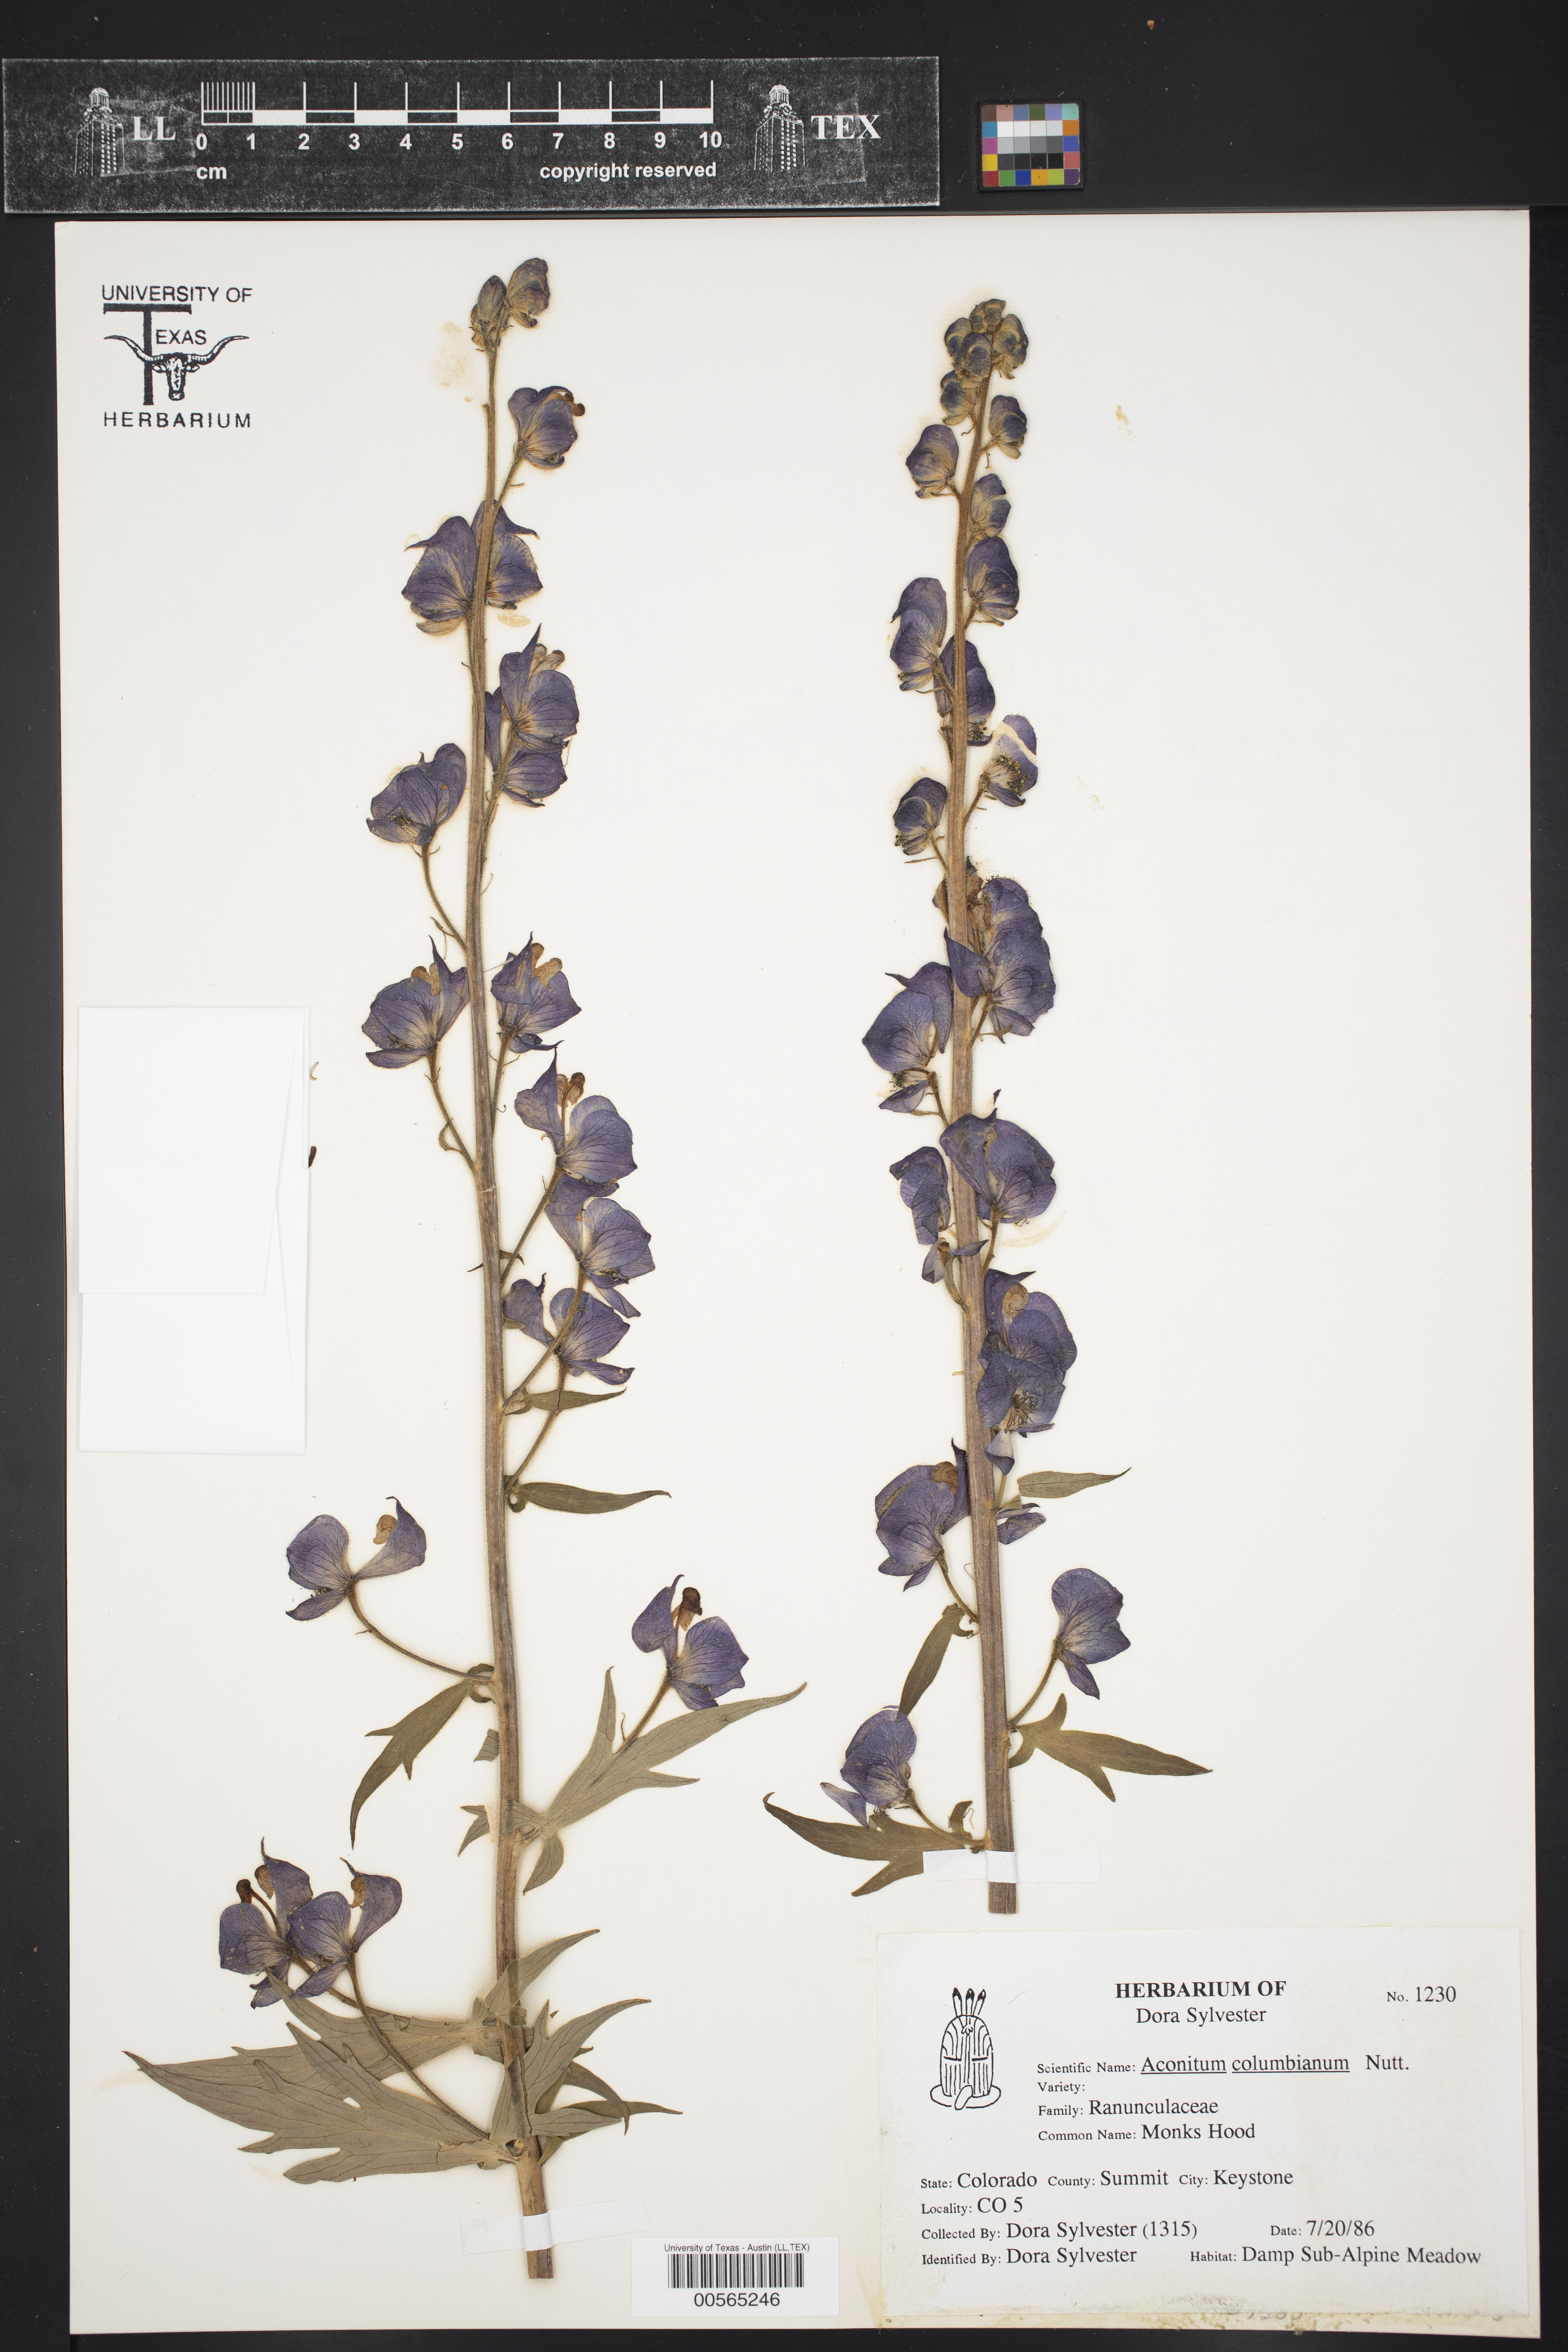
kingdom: Plantae
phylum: Tracheophyta
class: Magnoliopsida
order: Ranunculales
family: Ranunculaceae
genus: Aconitum
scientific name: Aconitum columbianum
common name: Columbia aconite
